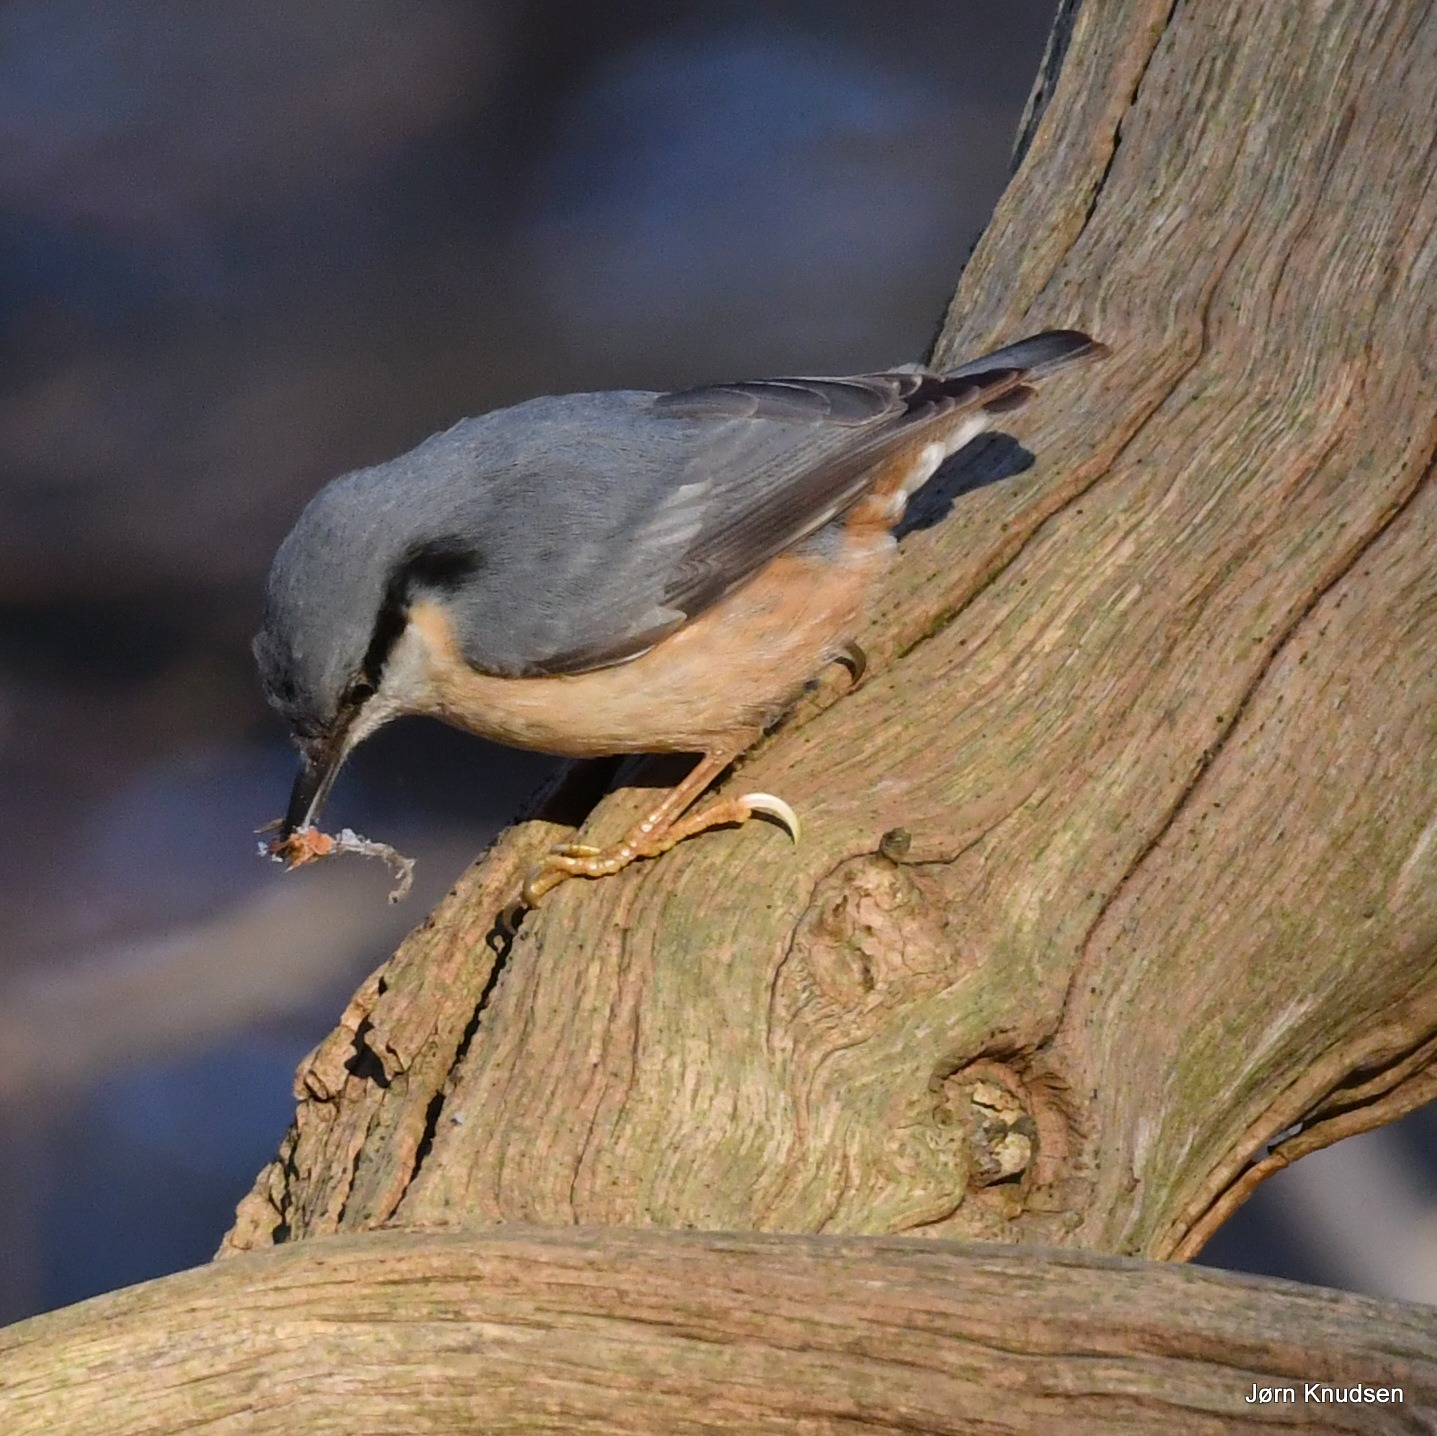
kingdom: Animalia
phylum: Chordata
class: Aves
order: Passeriformes
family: Sittidae
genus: Sitta
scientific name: Sitta europaea
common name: Spætmejse
